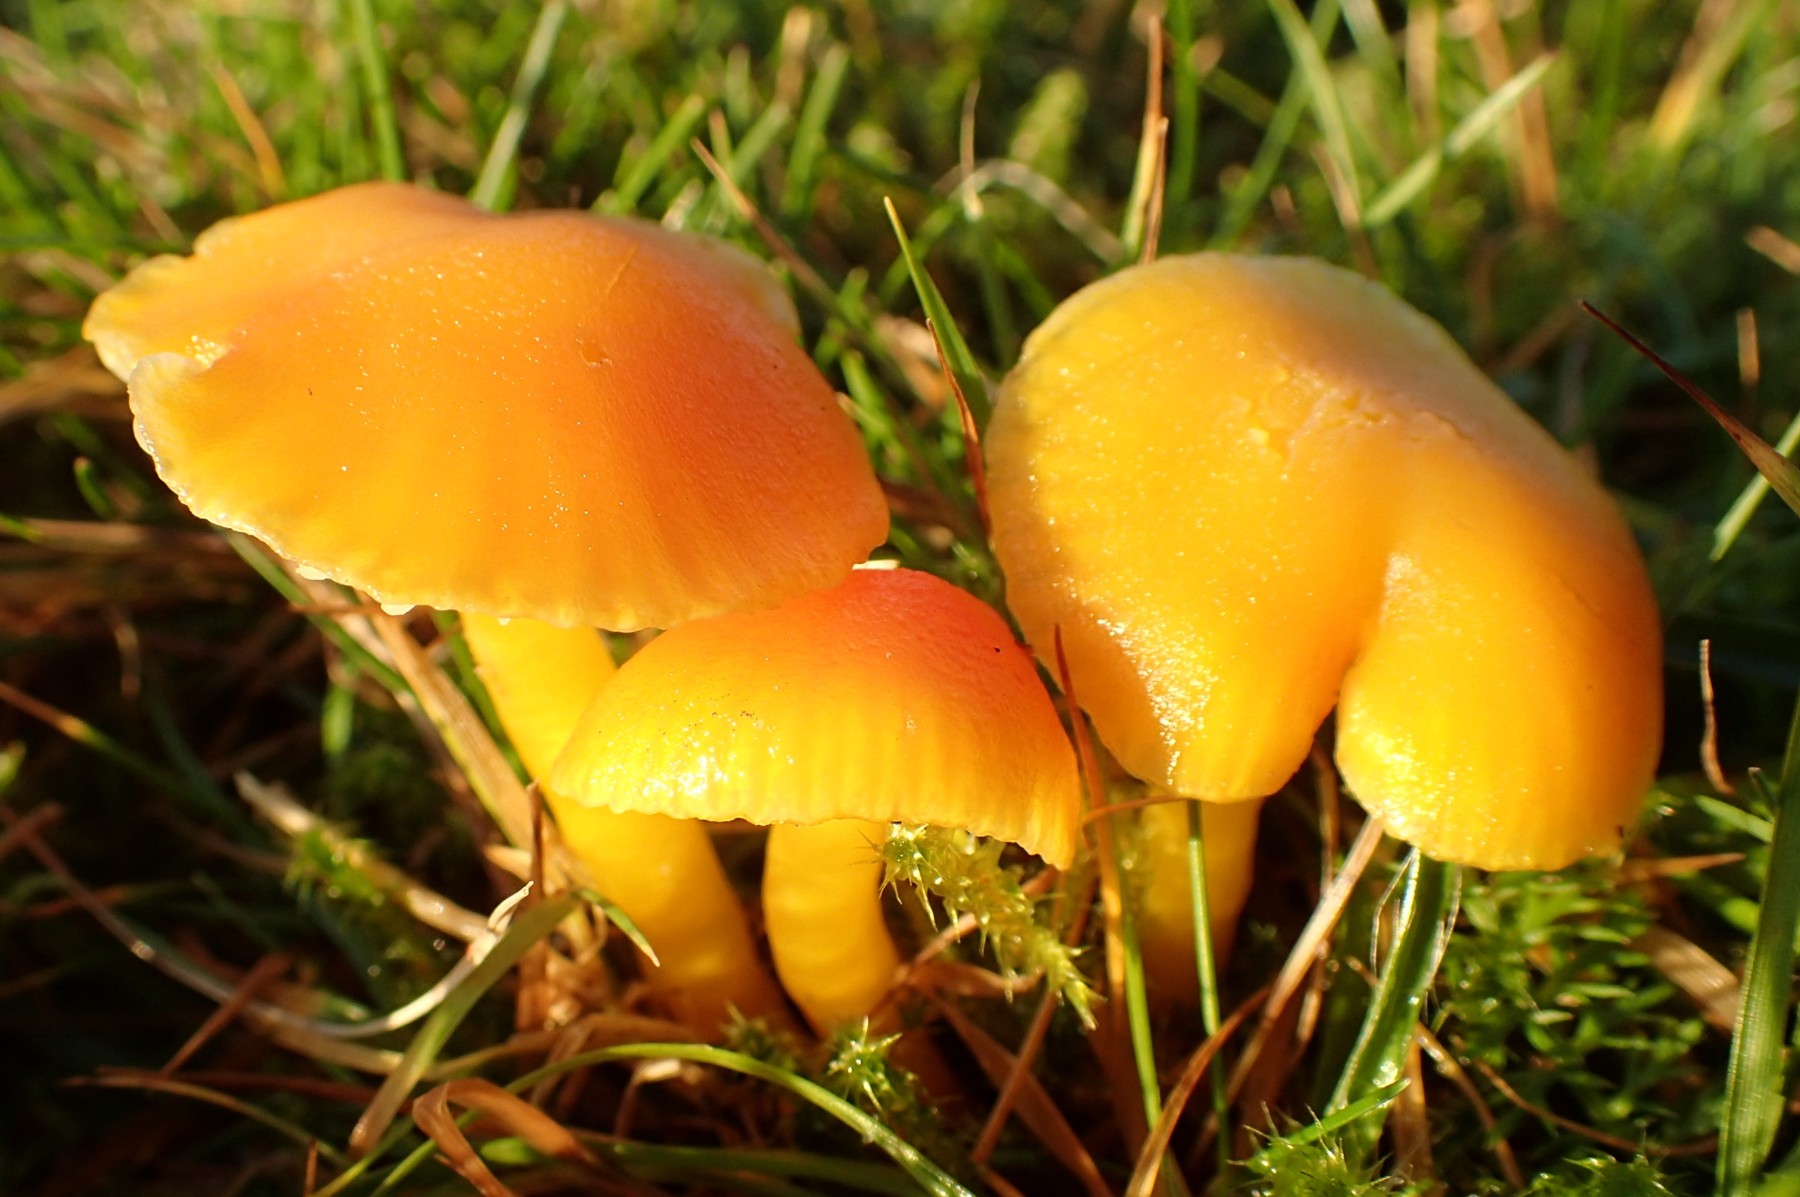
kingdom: Fungi
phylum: Basidiomycota
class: Agaricomycetes
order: Agaricales
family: Hygrophoraceae
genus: Hygrocybe
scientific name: Hygrocybe ceracea
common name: voksgul vokshat
